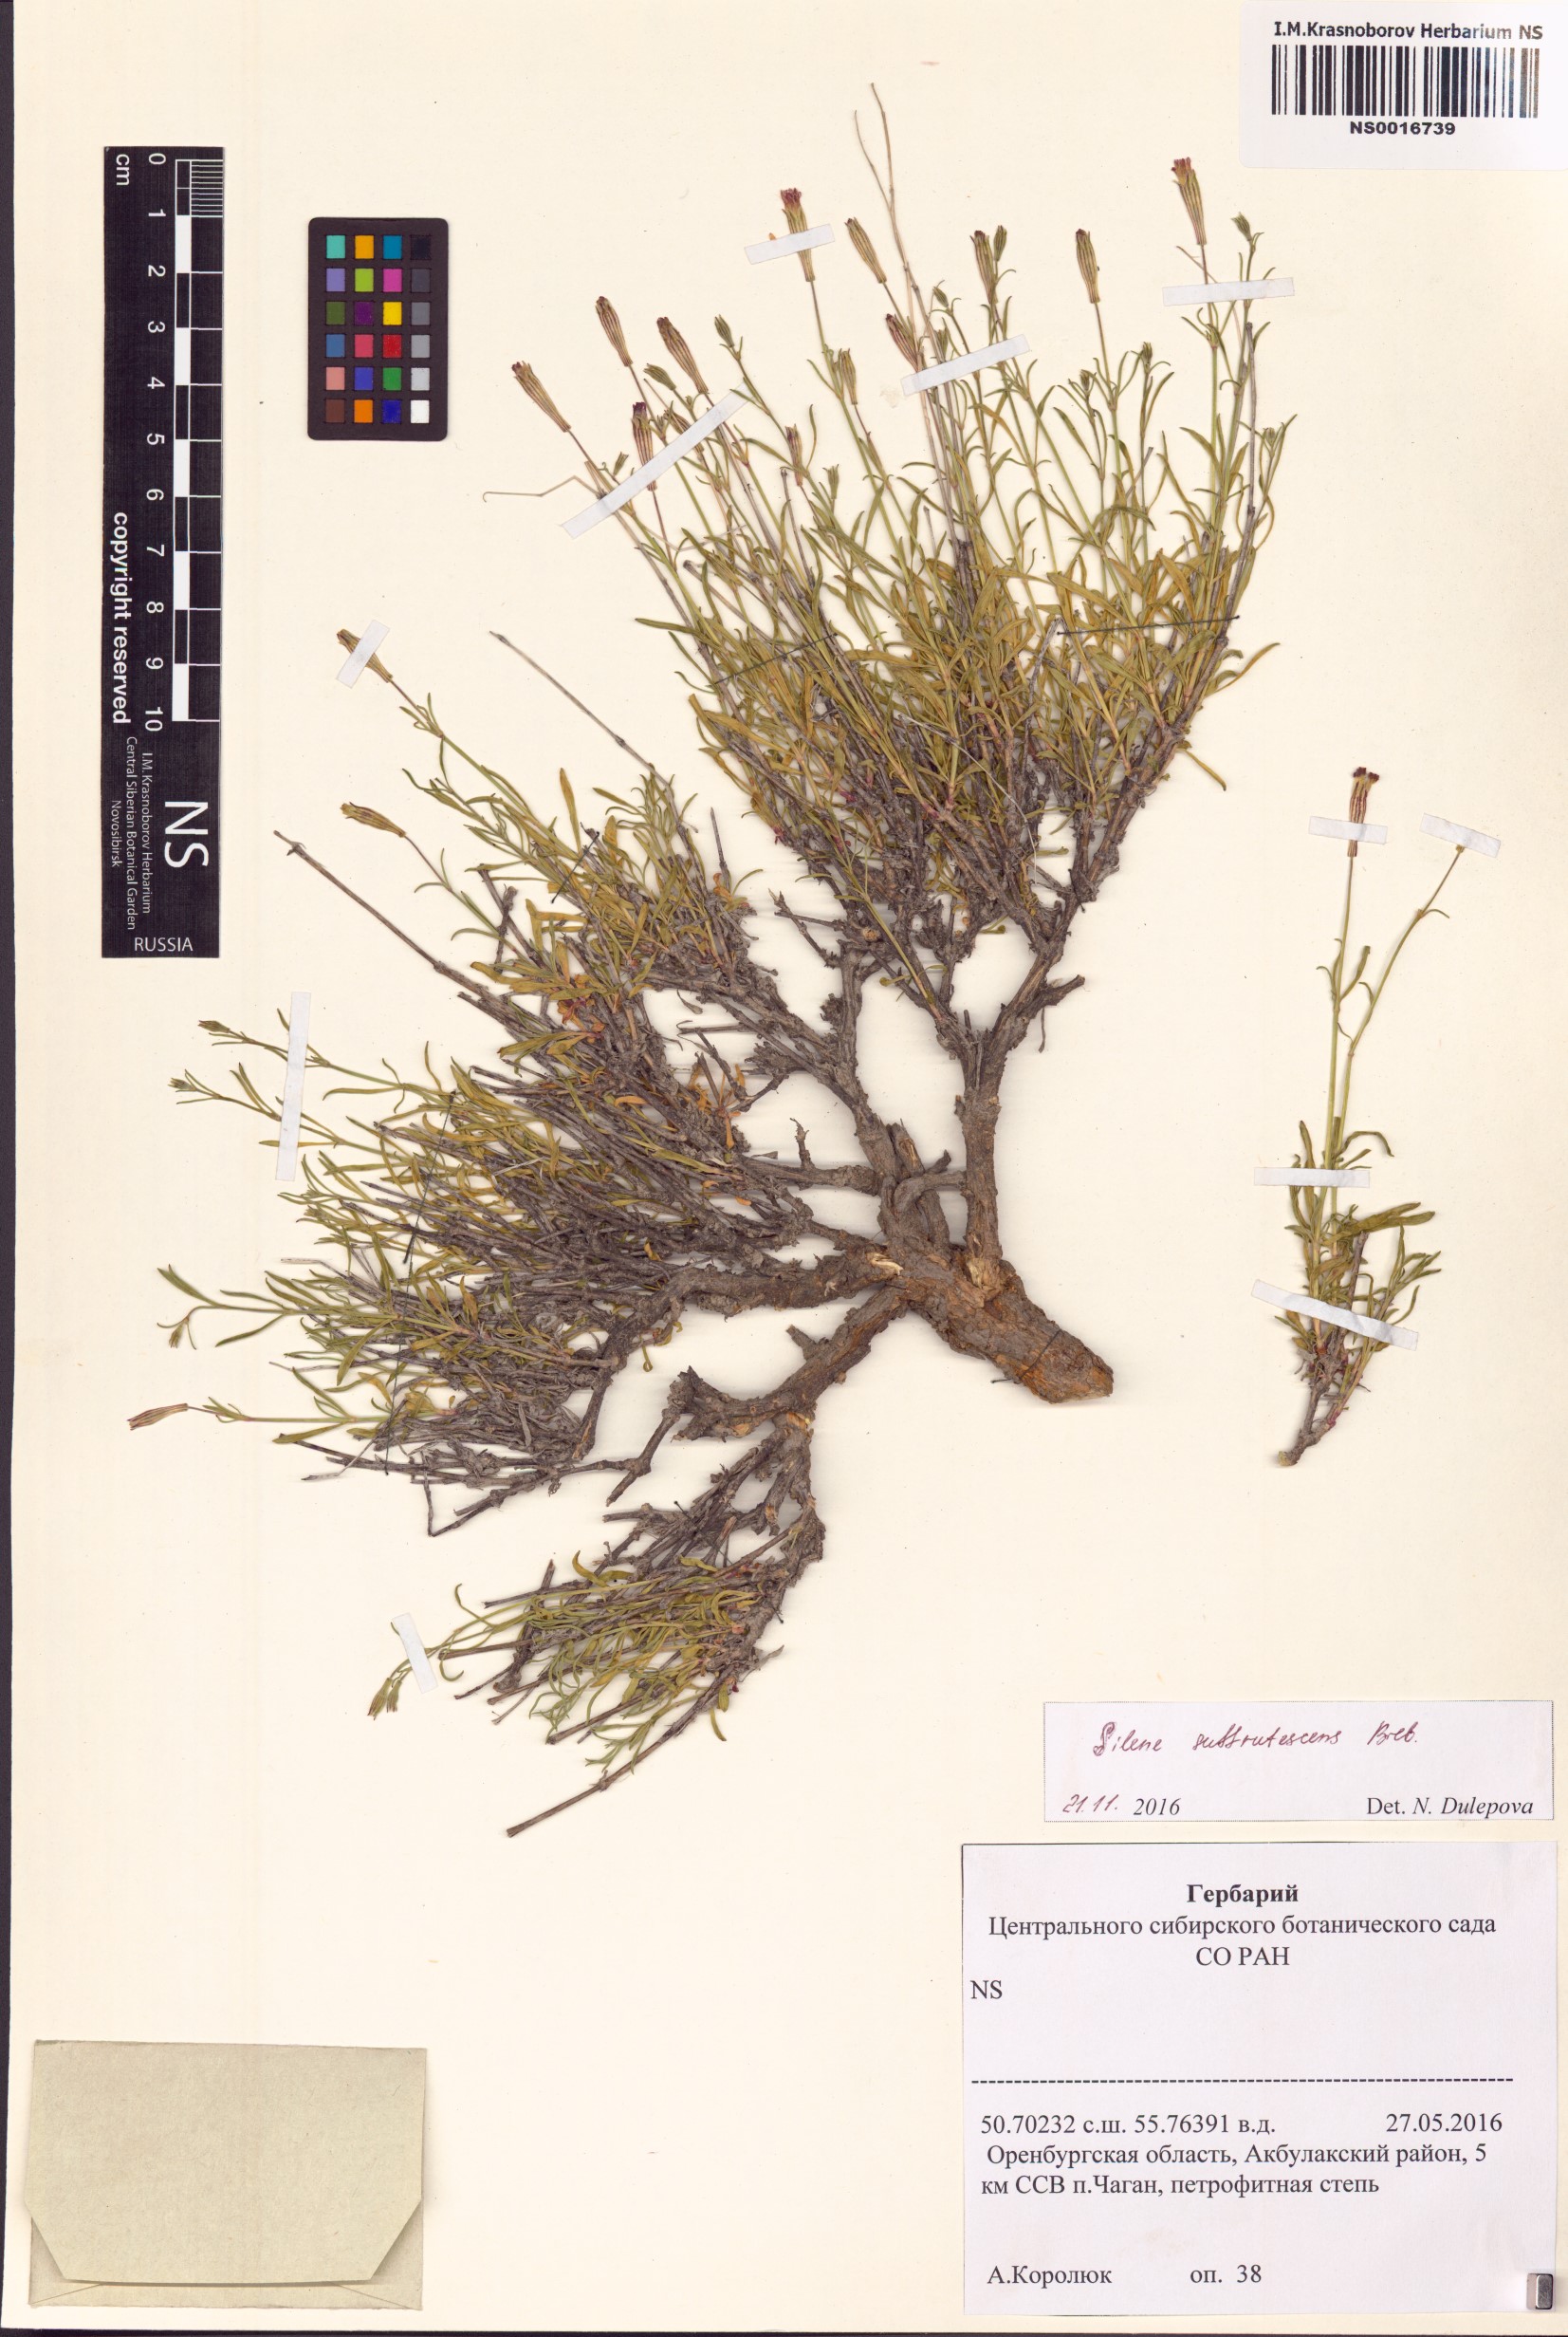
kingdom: Plantae
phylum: Tracheophyta
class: Magnoliopsida
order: Caryophyllales
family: Caryophyllaceae
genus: Silene
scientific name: Silene fruticulosa
